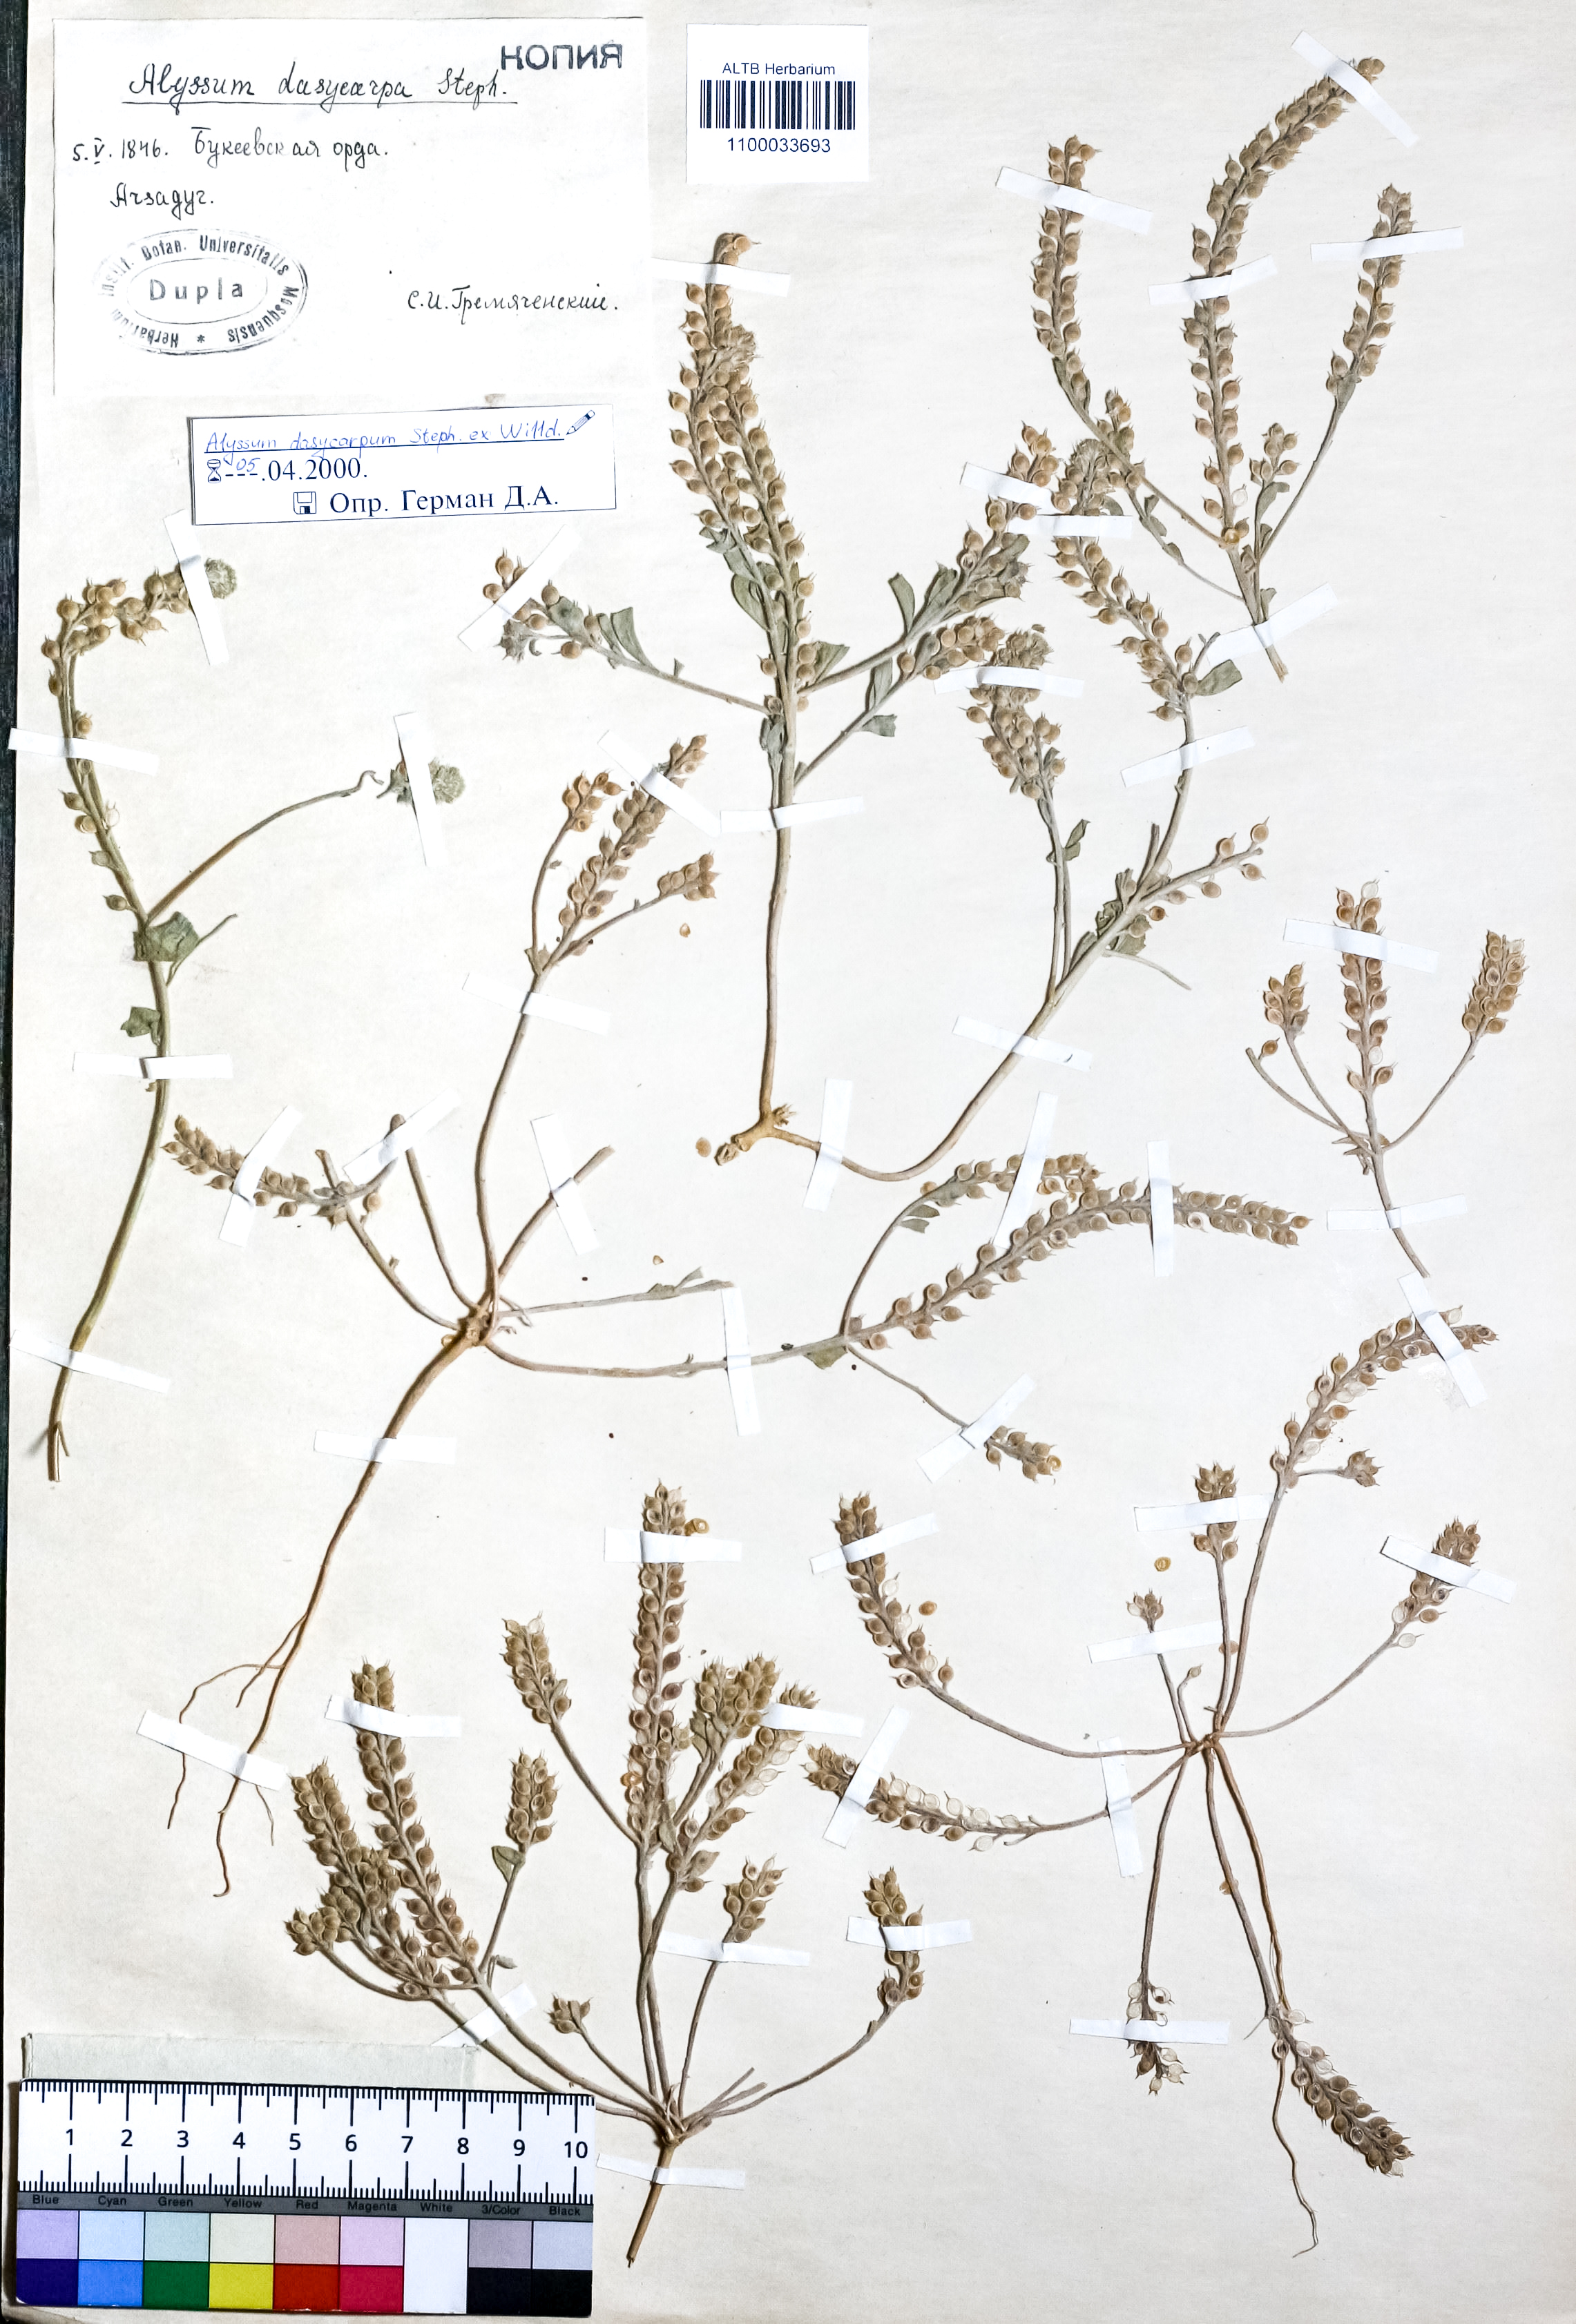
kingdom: Plantae
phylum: Tracheophyta
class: Magnoliopsida
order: Brassicales
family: Brassicaceae
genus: Alyssum
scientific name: Alyssum dasycarpum
